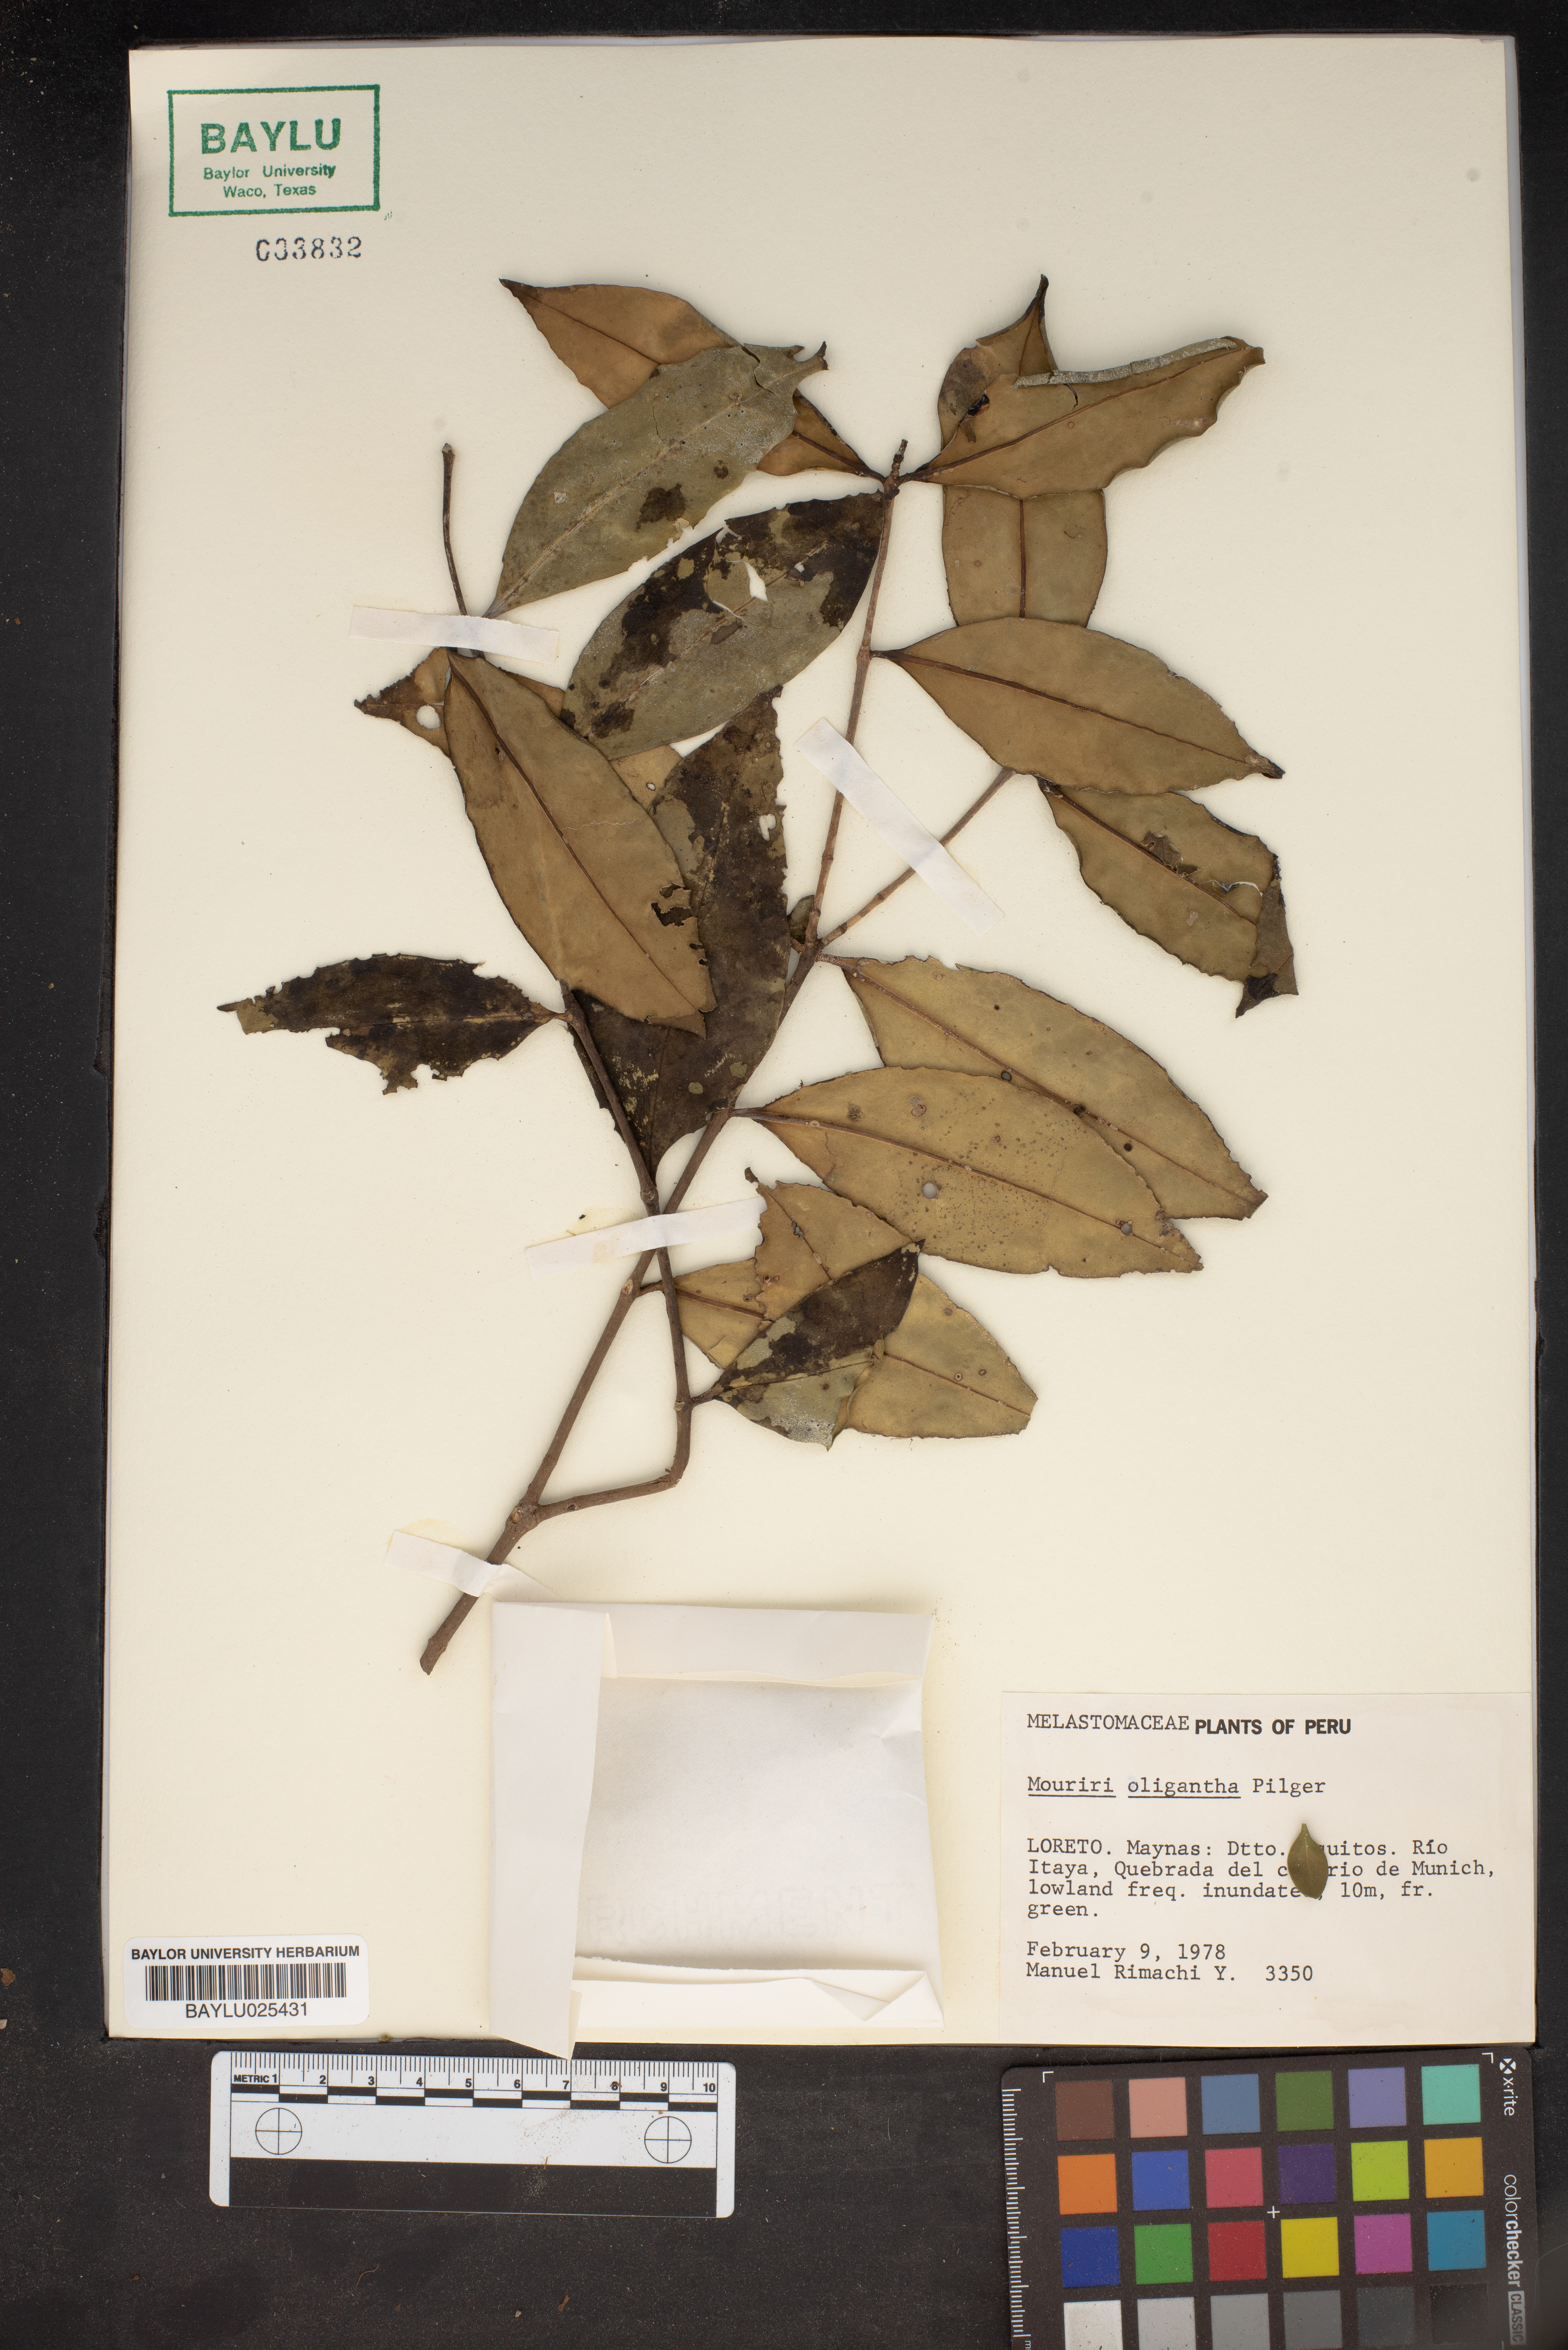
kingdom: Plantae
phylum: Tracheophyta
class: Magnoliopsida
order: Myrtales
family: Melastomataceae
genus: Mouriri
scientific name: Mouriri oligantha
